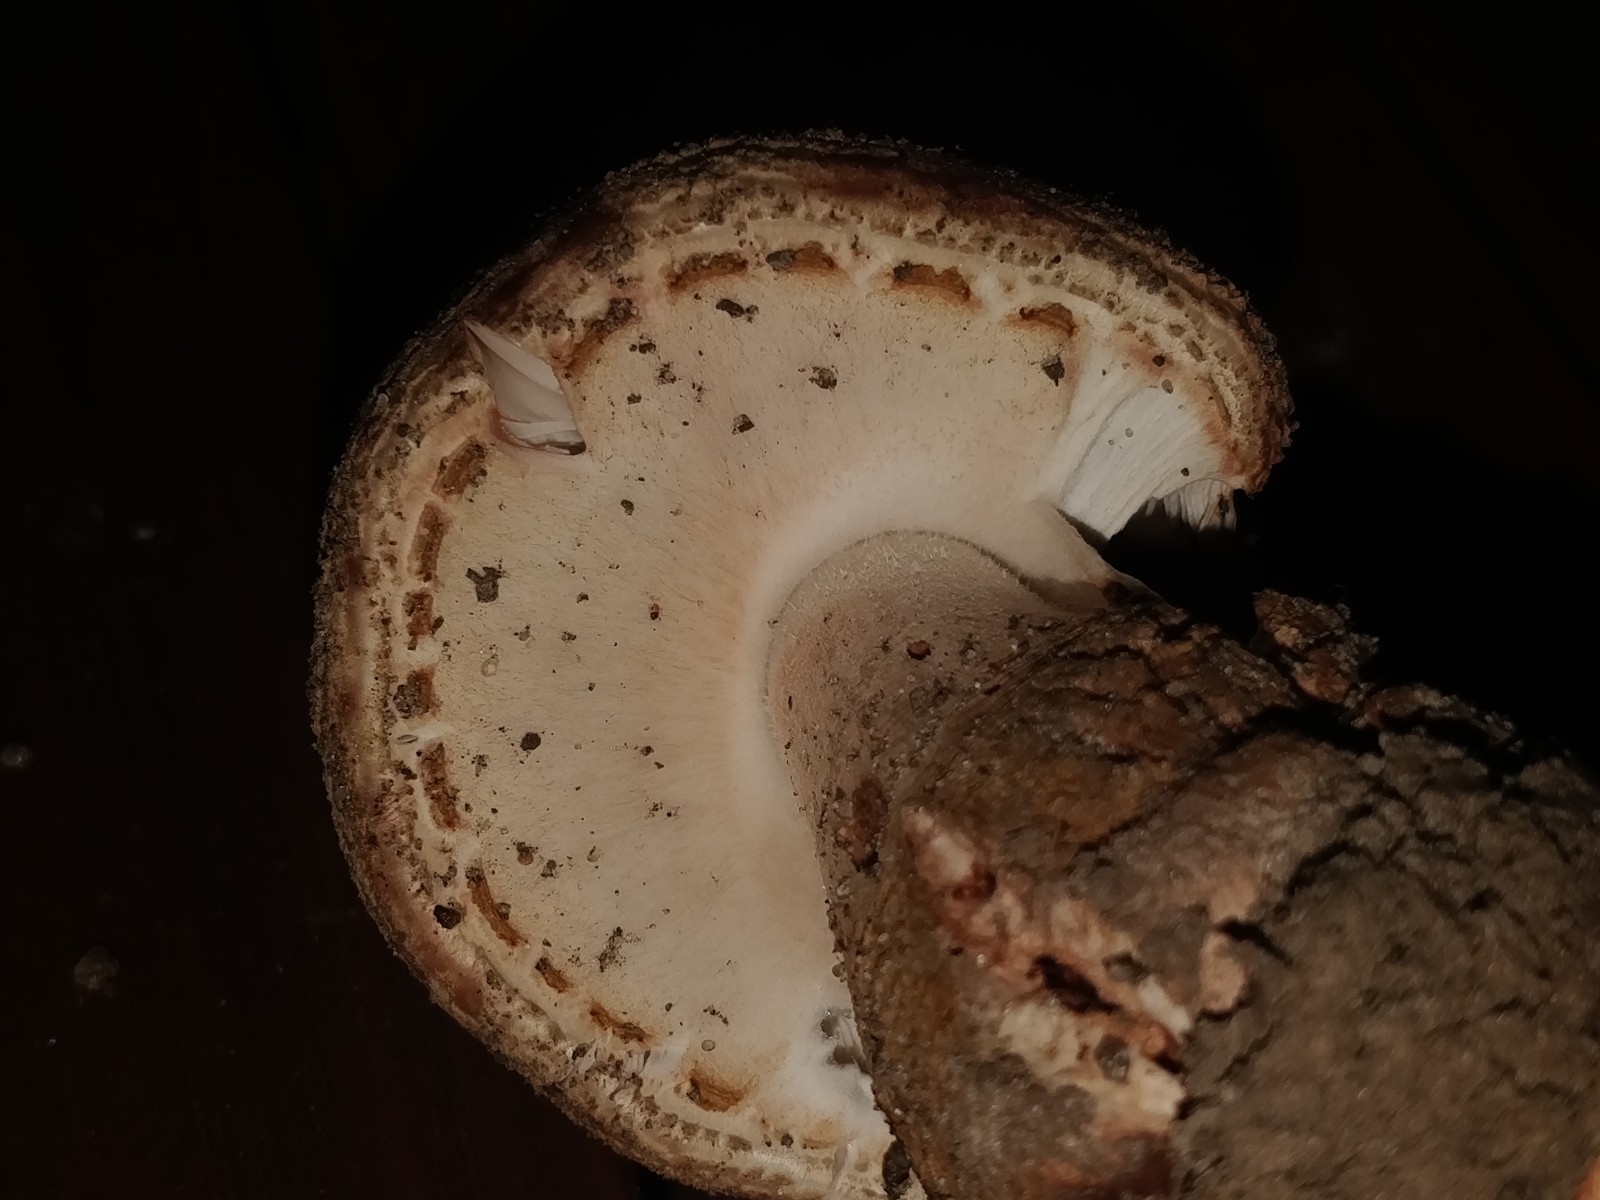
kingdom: Fungi
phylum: Basidiomycota
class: Agaricomycetes
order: Agaricales
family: Amanitaceae
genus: Amanita
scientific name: Amanita rubescens
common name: rødmende fluesvamp
